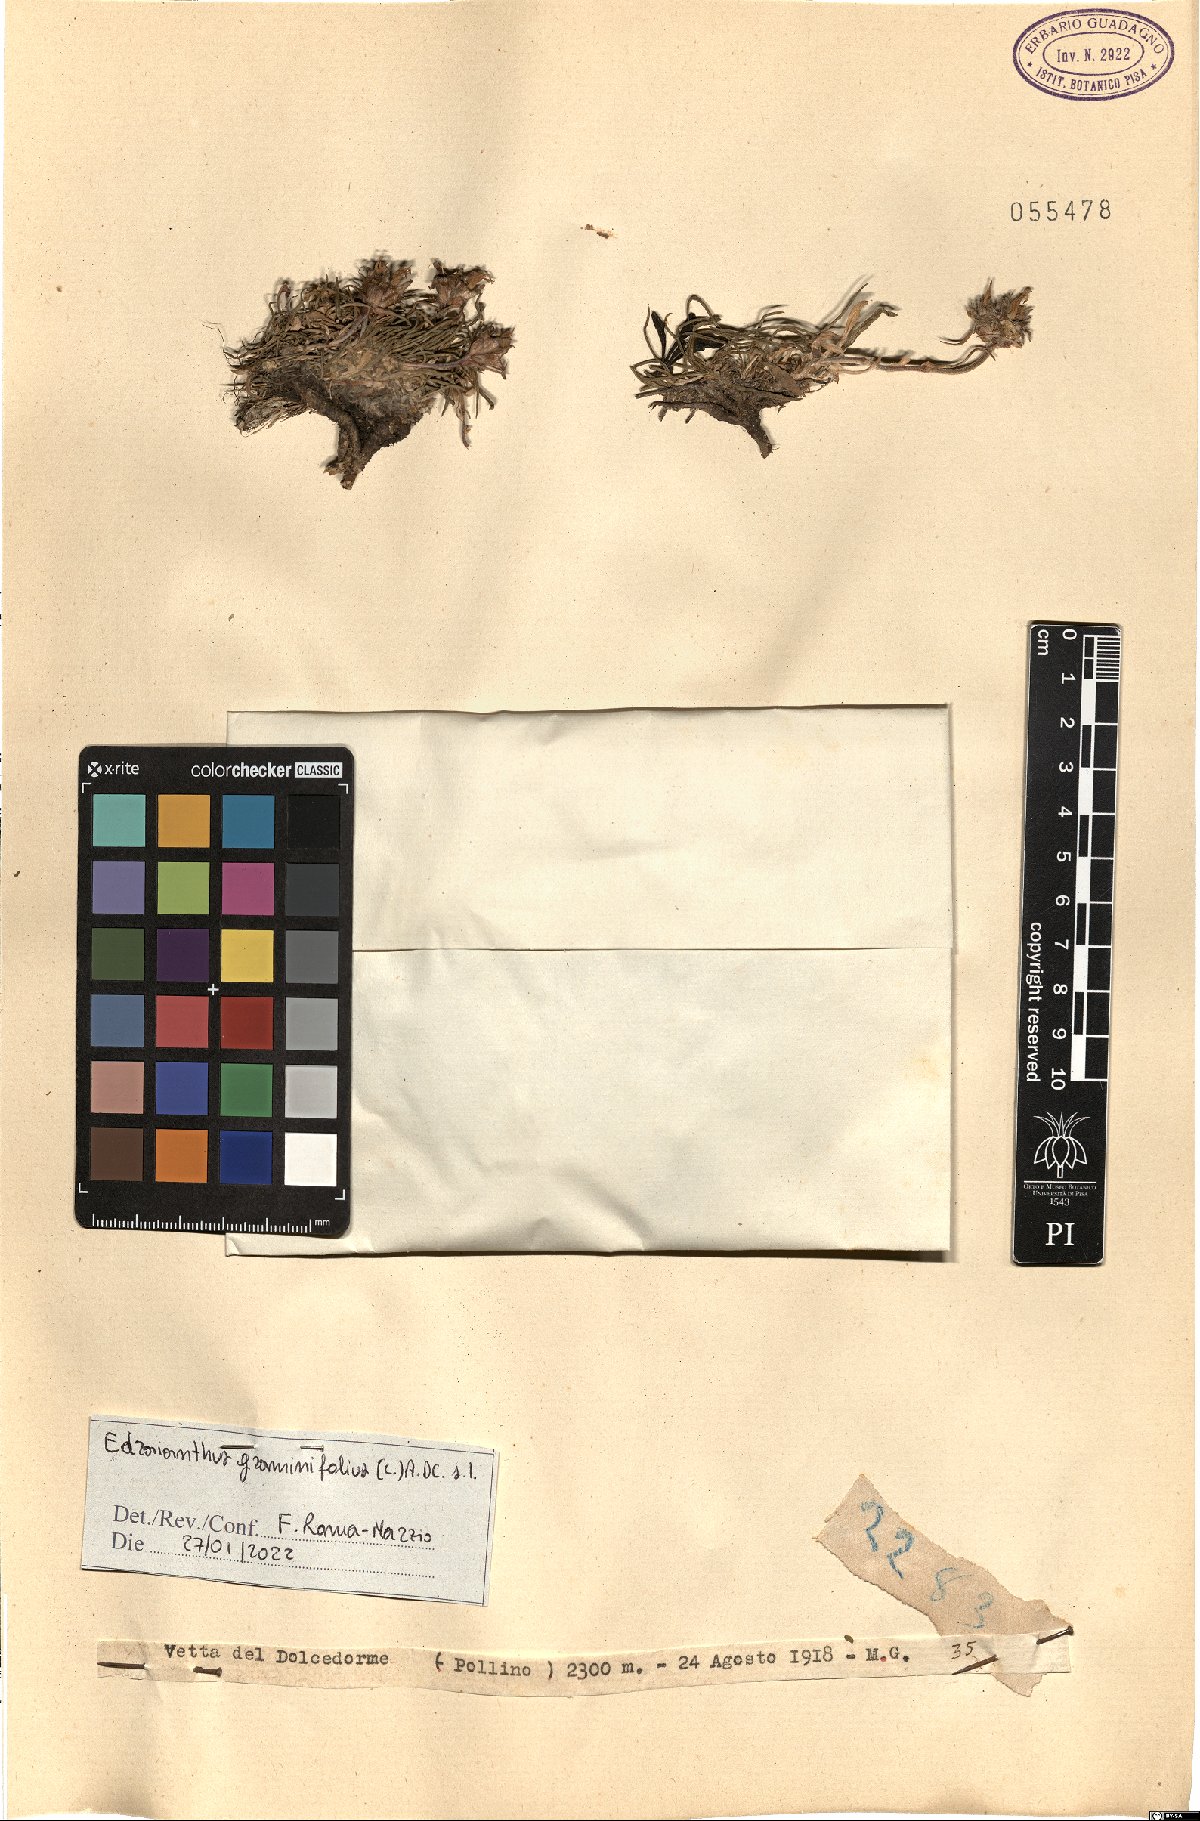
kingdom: Plantae
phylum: Tracheophyta
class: Magnoliopsida
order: Asterales
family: Campanulaceae
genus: Edraianthus
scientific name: Edraianthus graminifolius
